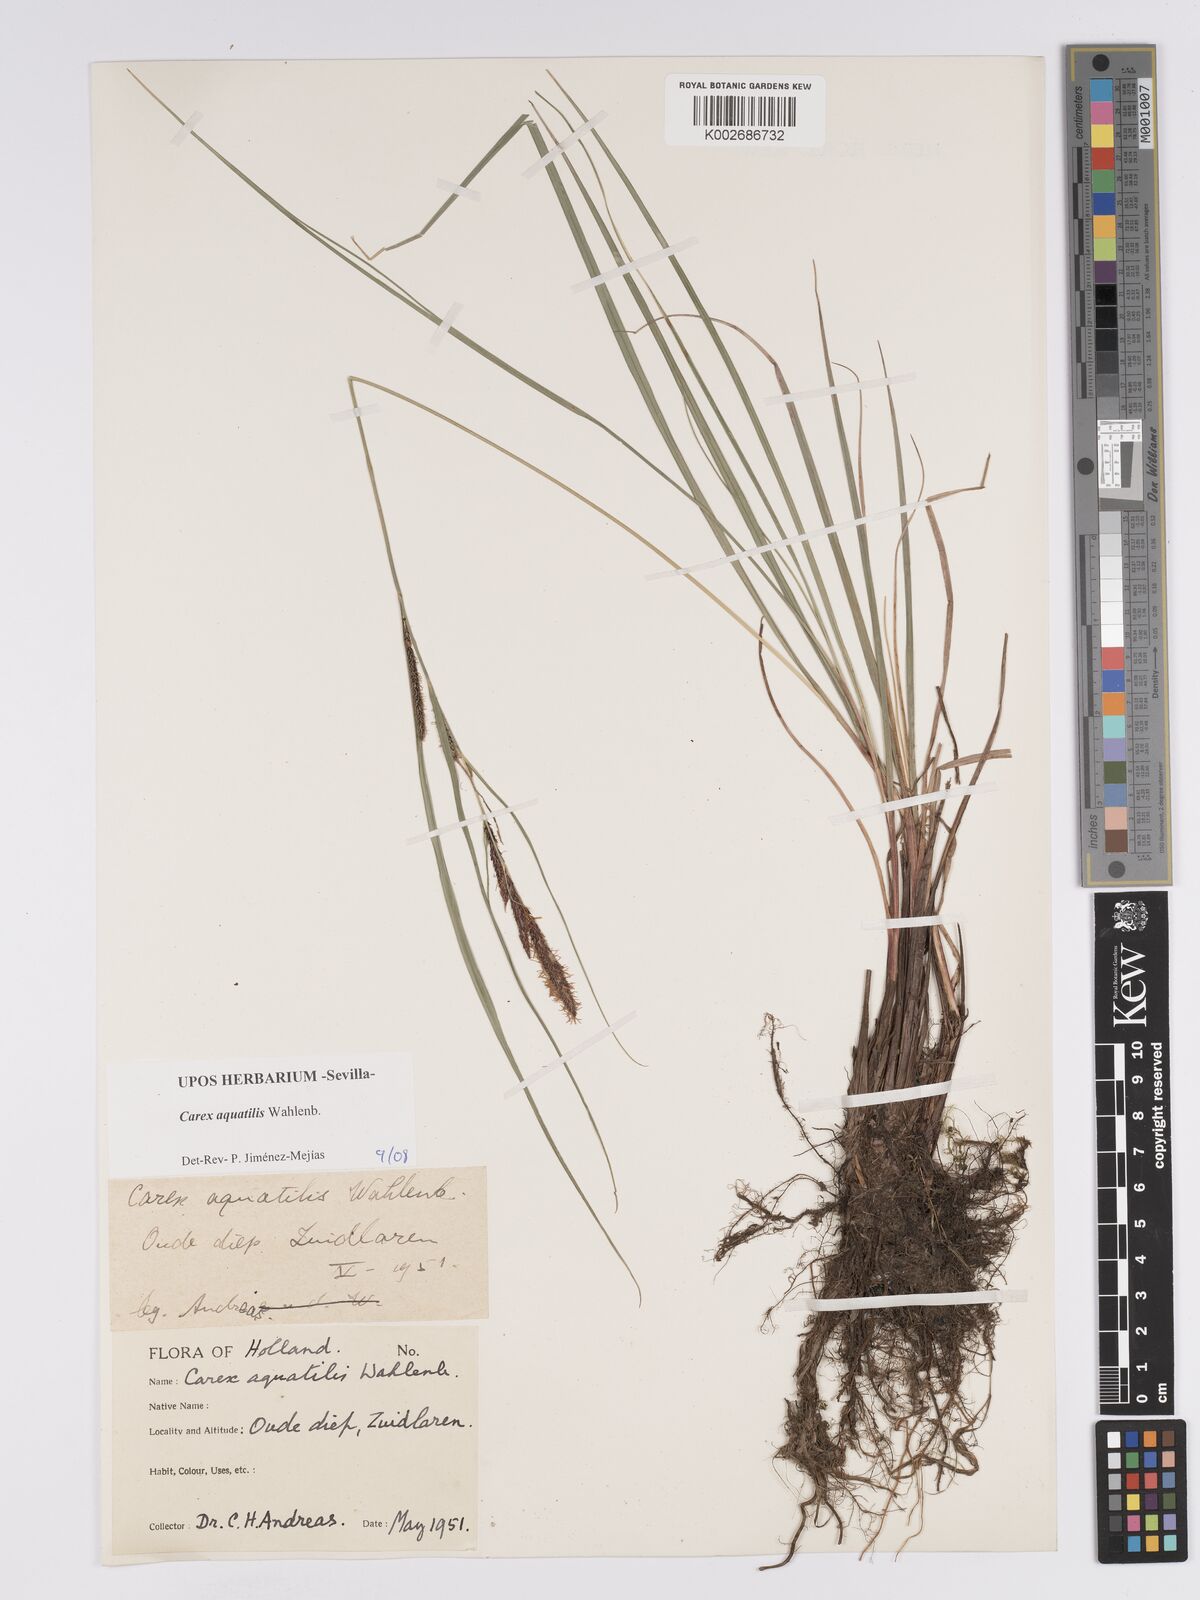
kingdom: Plantae
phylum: Tracheophyta
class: Liliopsida
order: Poales
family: Cyperaceae
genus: Carex
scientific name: Carex aquatilis
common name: Water sedge
